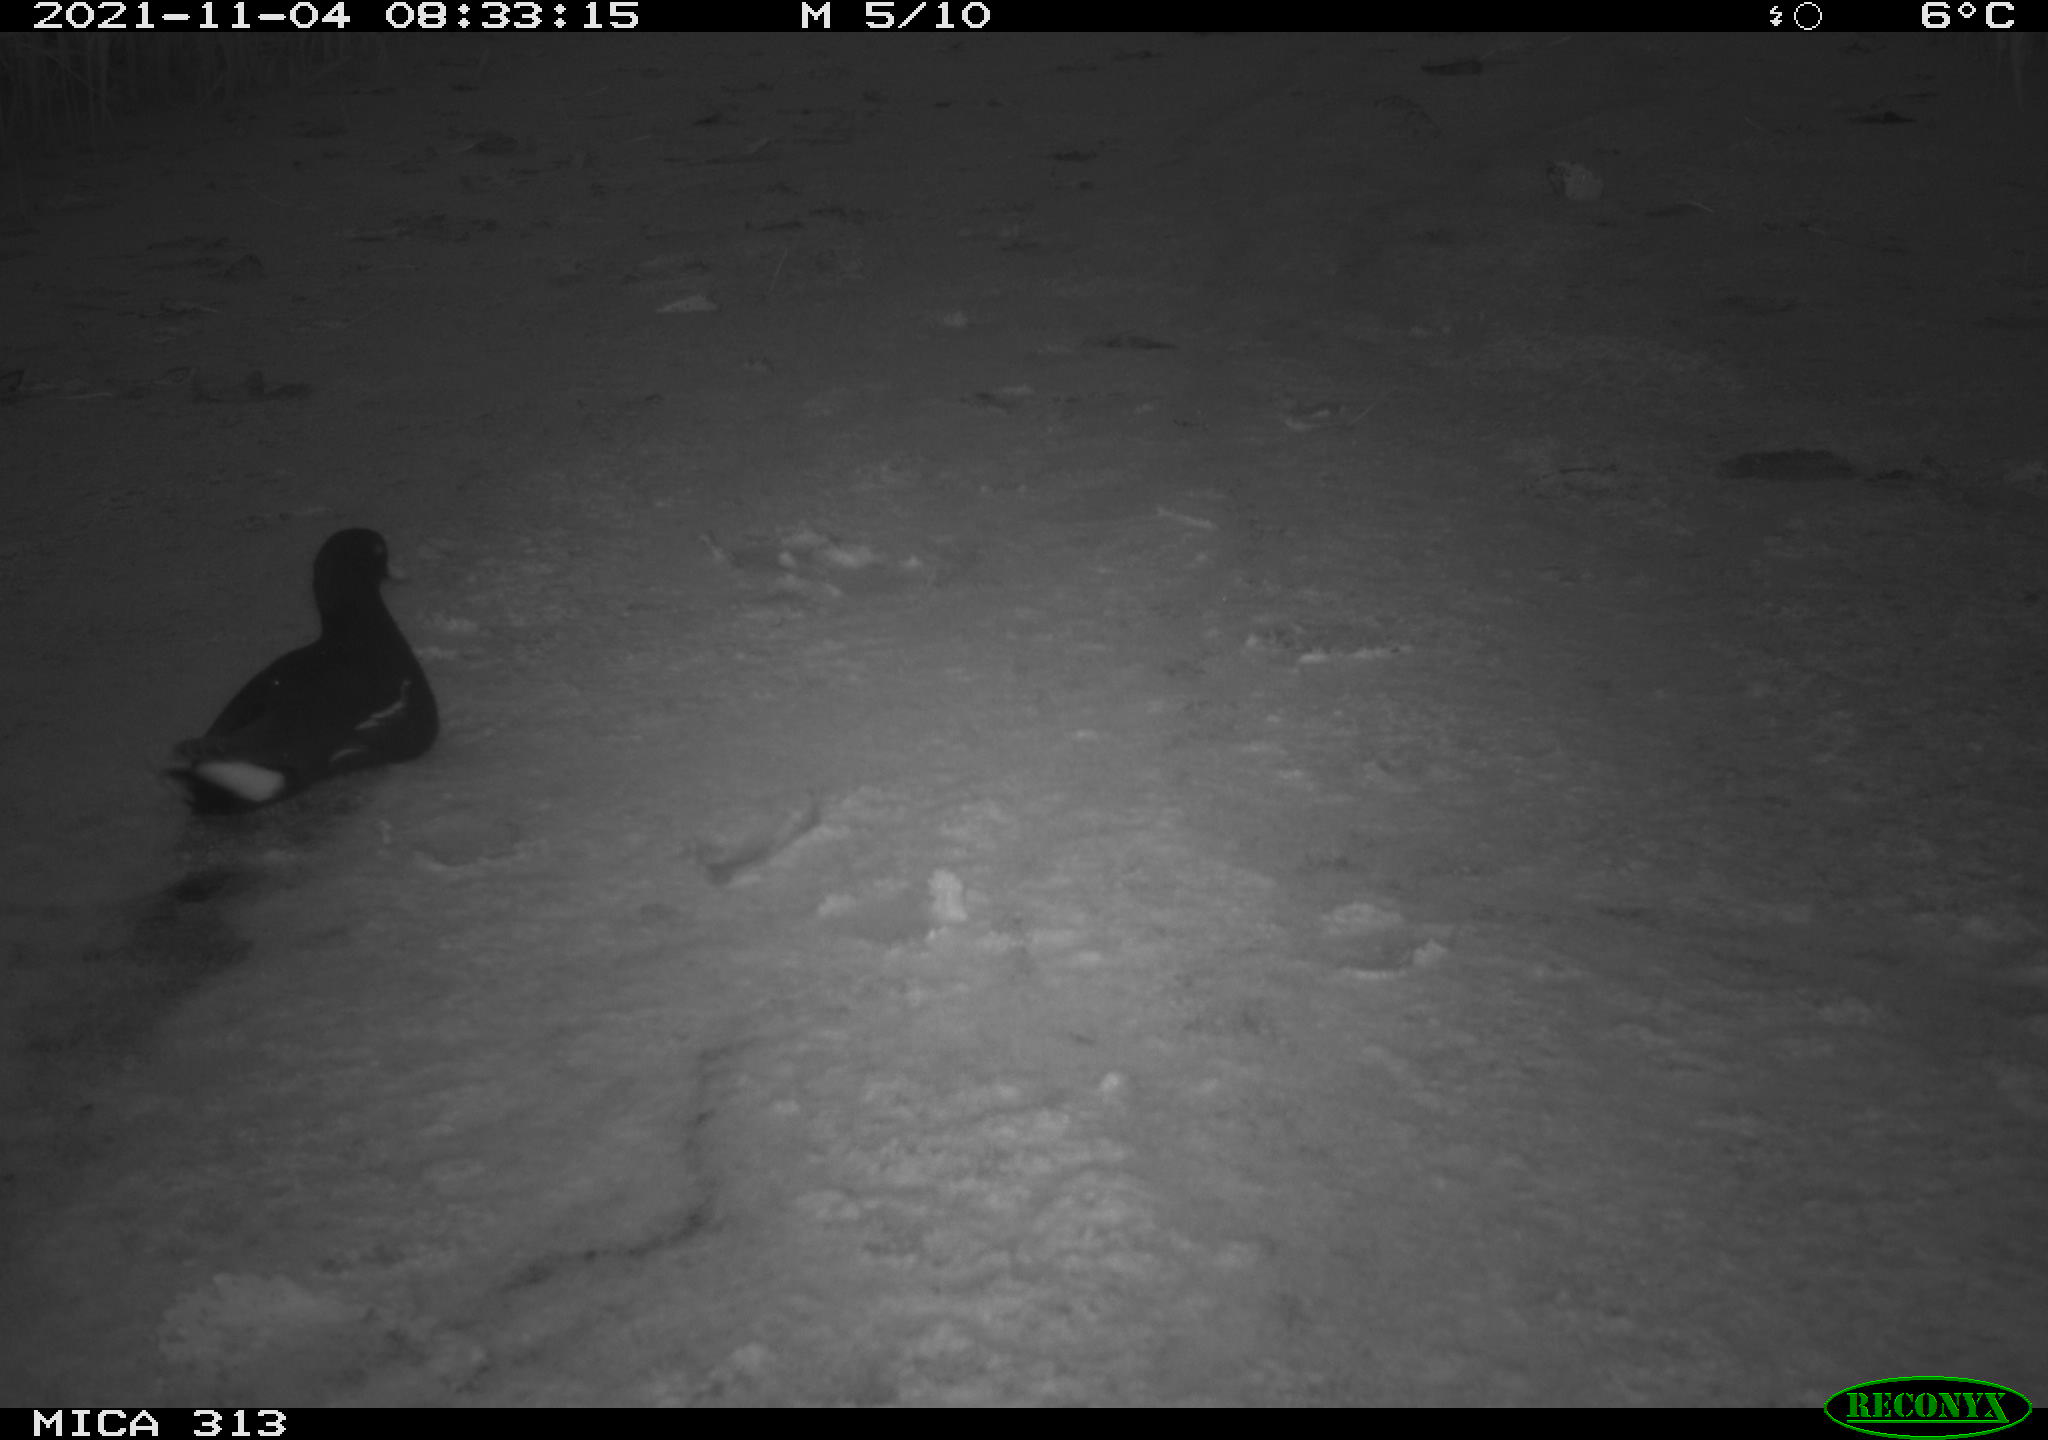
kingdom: Animalia
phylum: Chordata
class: Aves
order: Gruiformes
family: Rallidae
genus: Gallinula
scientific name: Gallinula chloropus
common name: Common moorhen
